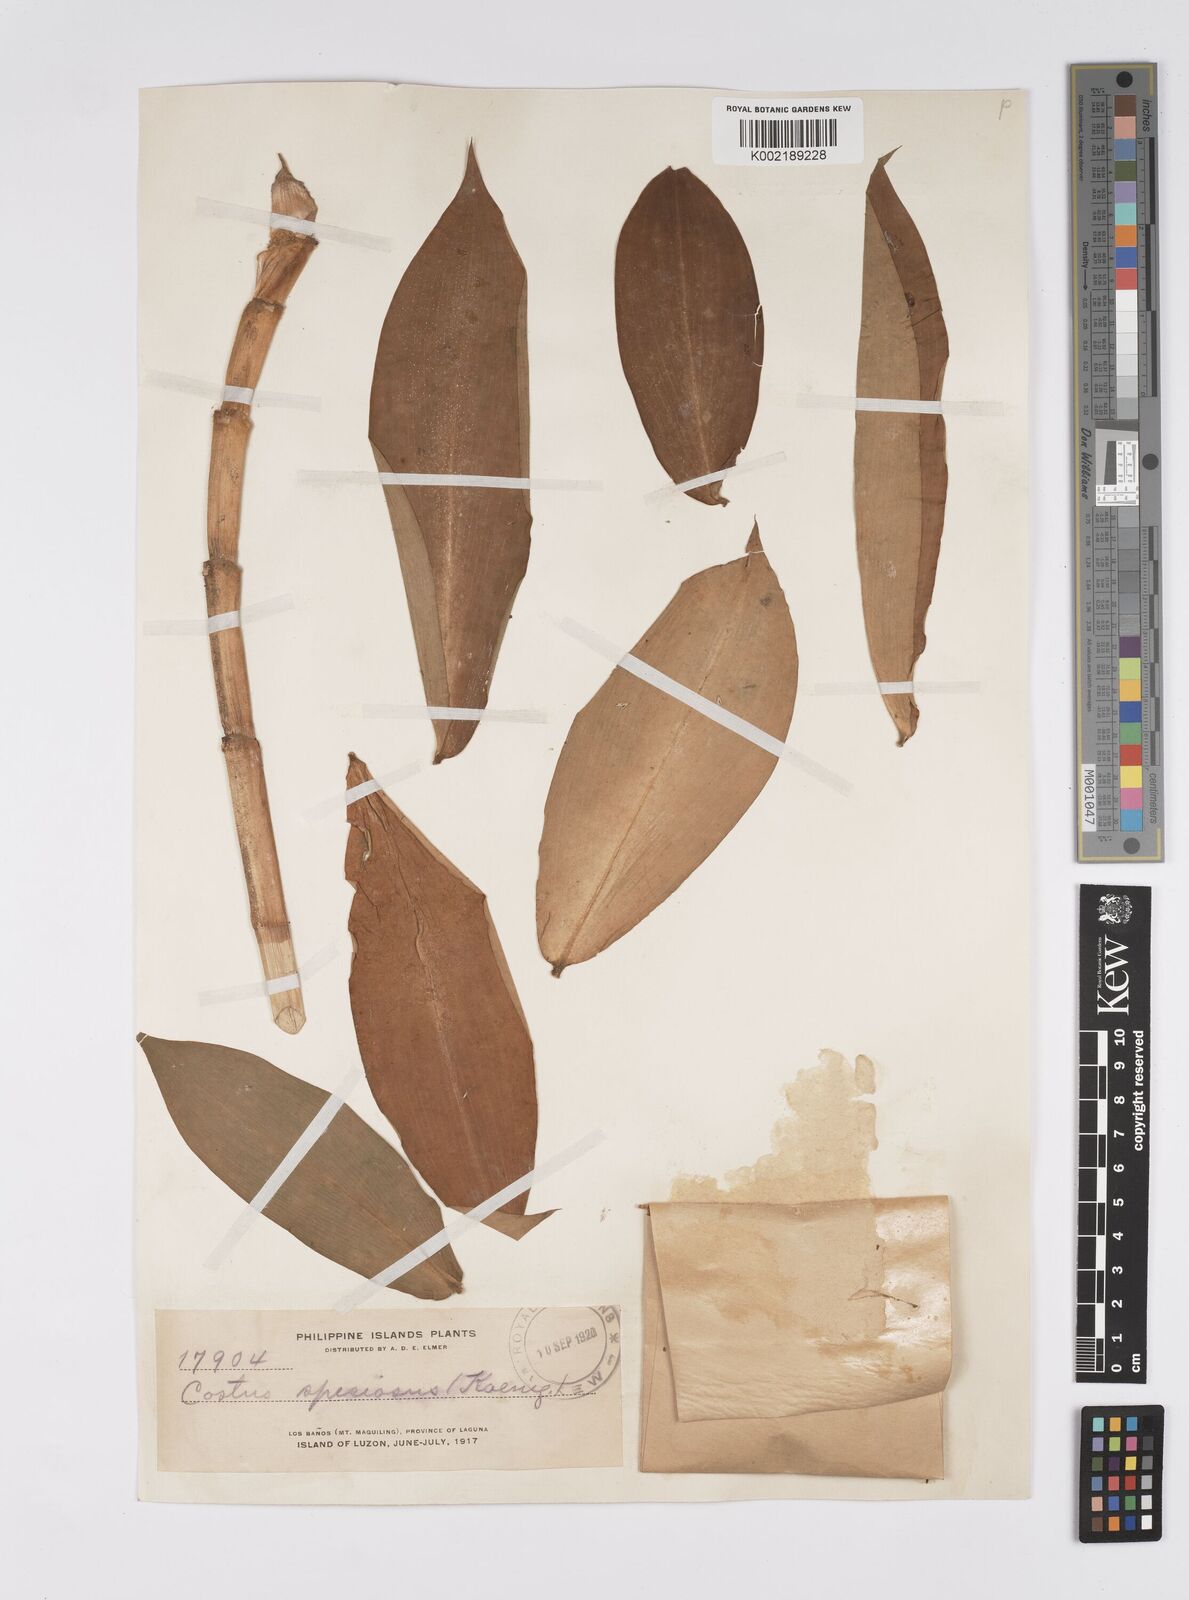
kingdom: Plantae
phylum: Tracheophyta
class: Liliopsida
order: Zingiberales
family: Costaceae
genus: Hellenia
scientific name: Hellenia speciosa
